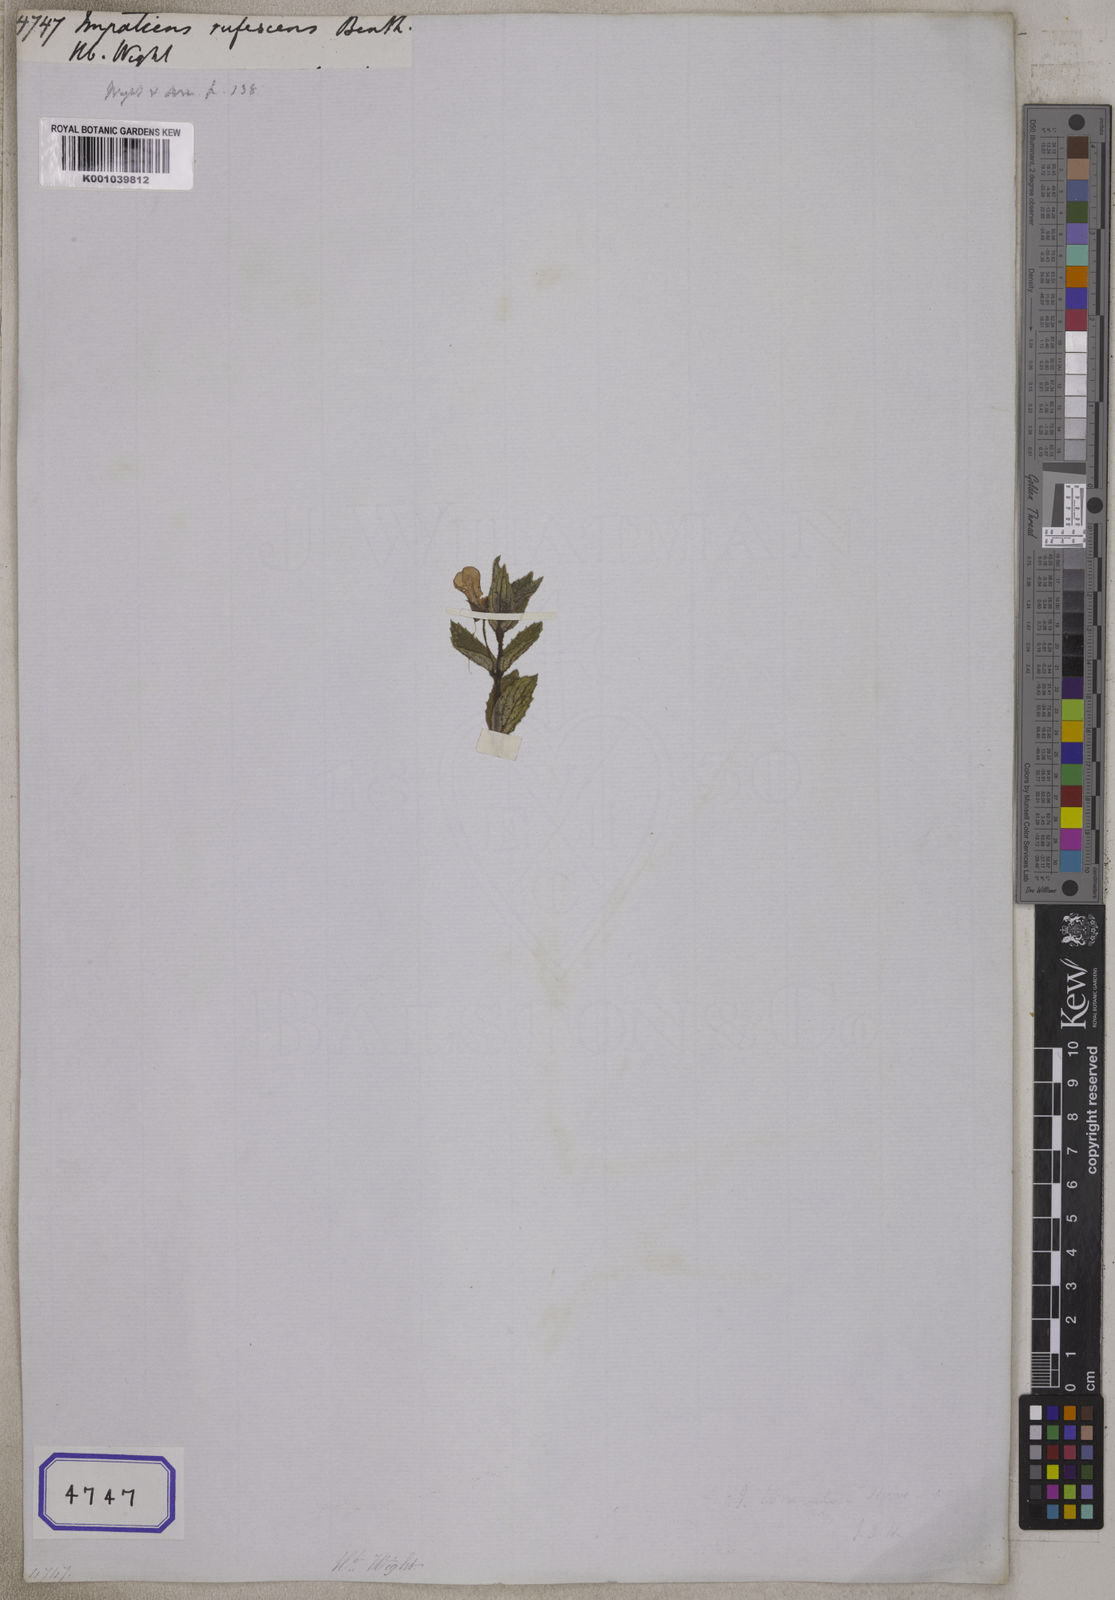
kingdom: Plantae
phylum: Tracheophyta
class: Magnoliopsida
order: Ericales
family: Balsaminaceae
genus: Impatiens
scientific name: Impatiens
